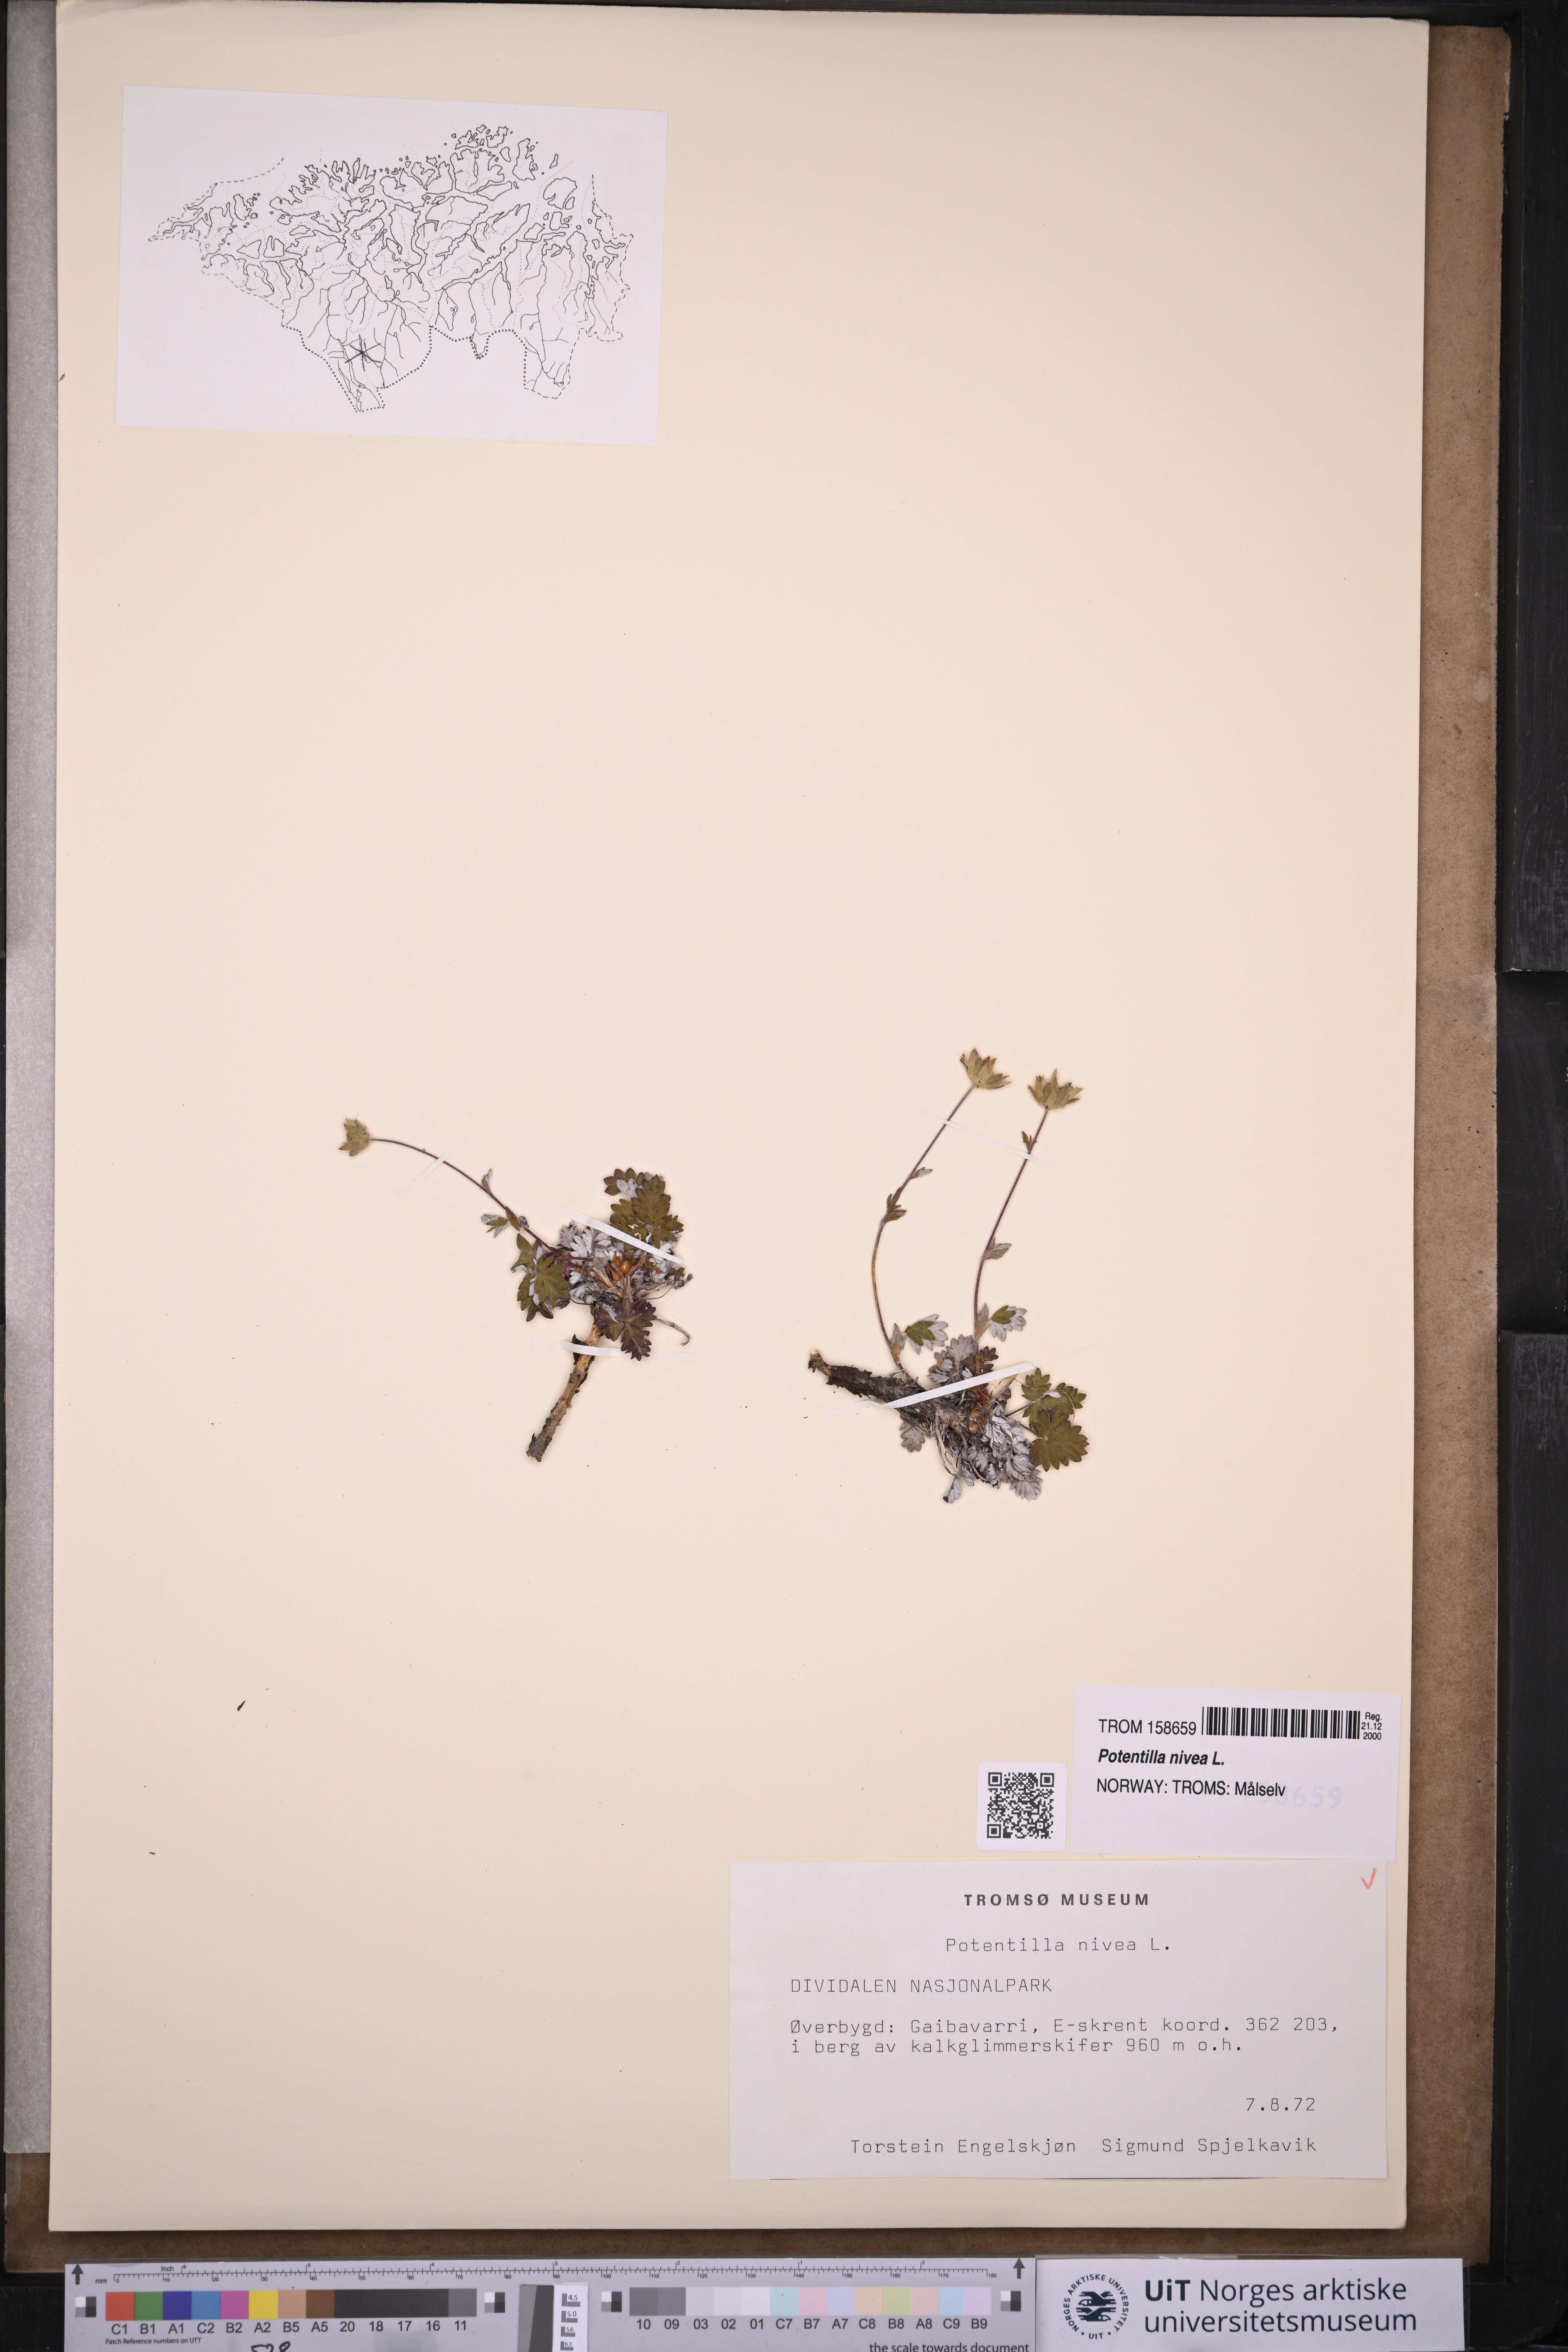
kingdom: Plantae
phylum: Tracheophyta
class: Magnoliopsida
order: Rosales
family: Rosaceae
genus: Potentilla
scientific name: Potentilla arenosa
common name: Bluff cinquefoil
